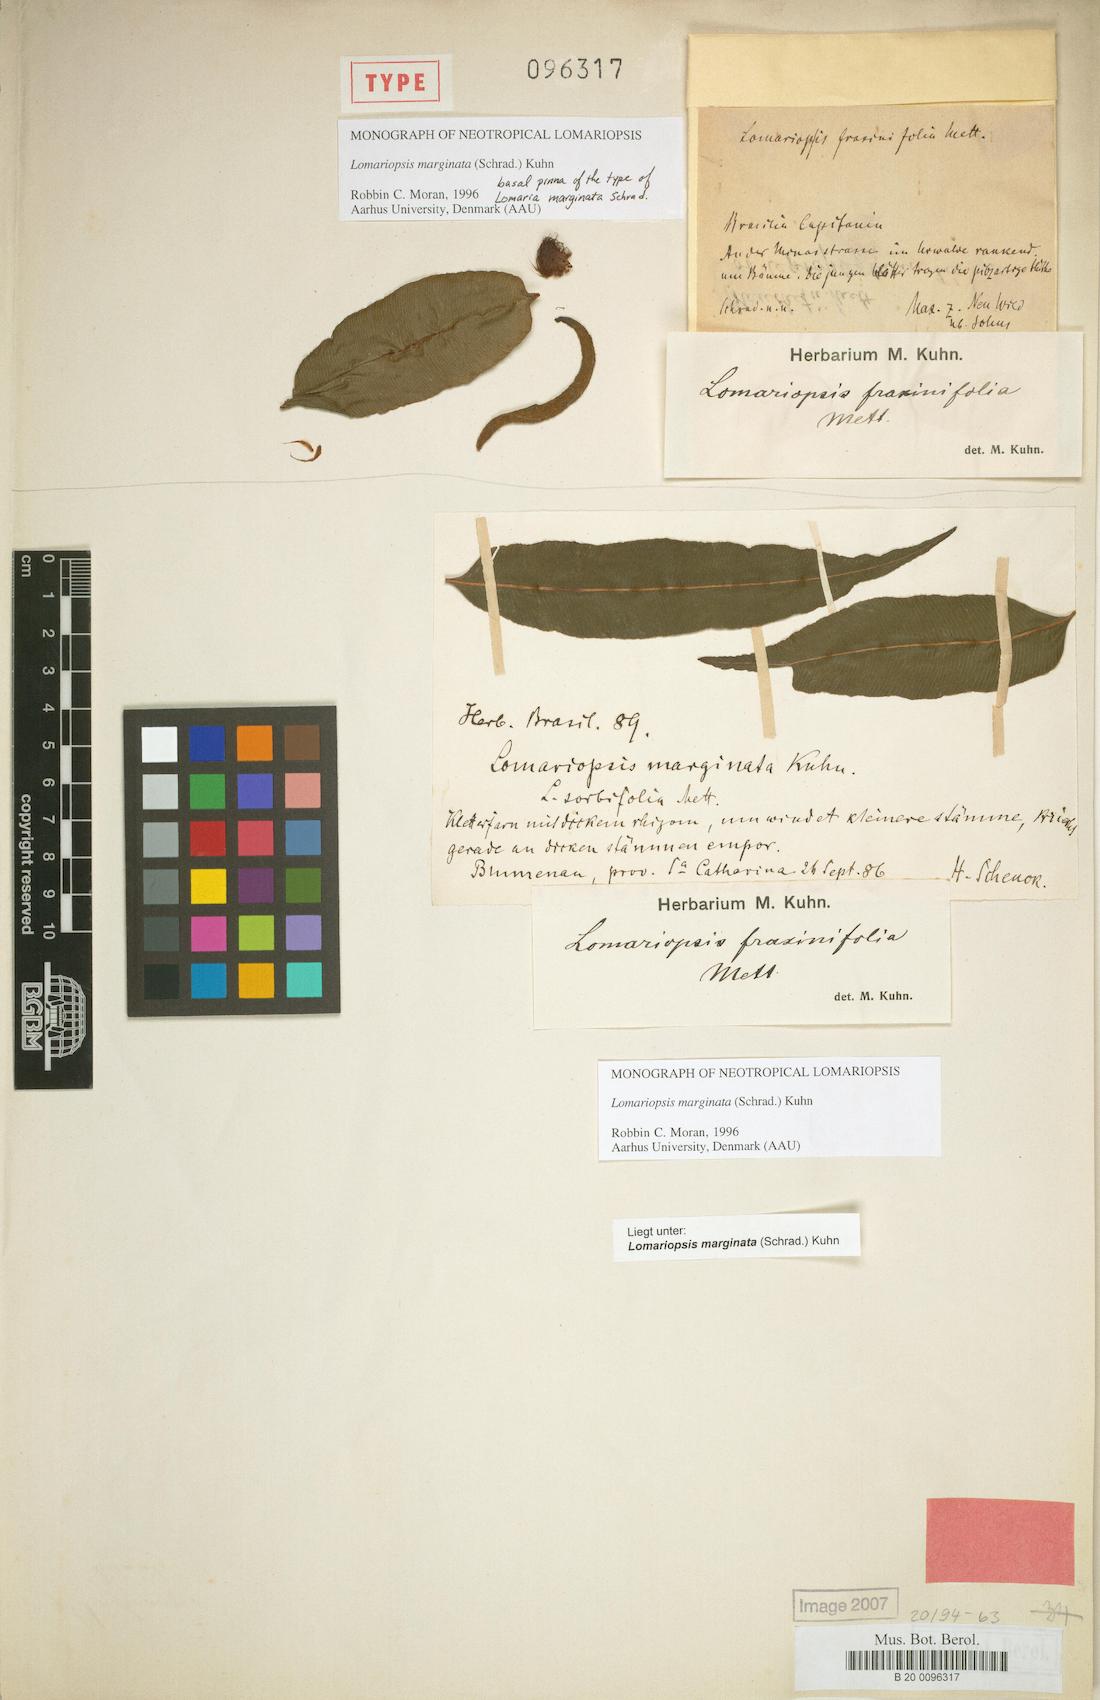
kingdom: Plantae
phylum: Tracheophyta
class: Polypodiopsida
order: Polypodiales
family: Lomariopsidaceae
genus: Lomariopsis
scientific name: Lomariopsis marginata
